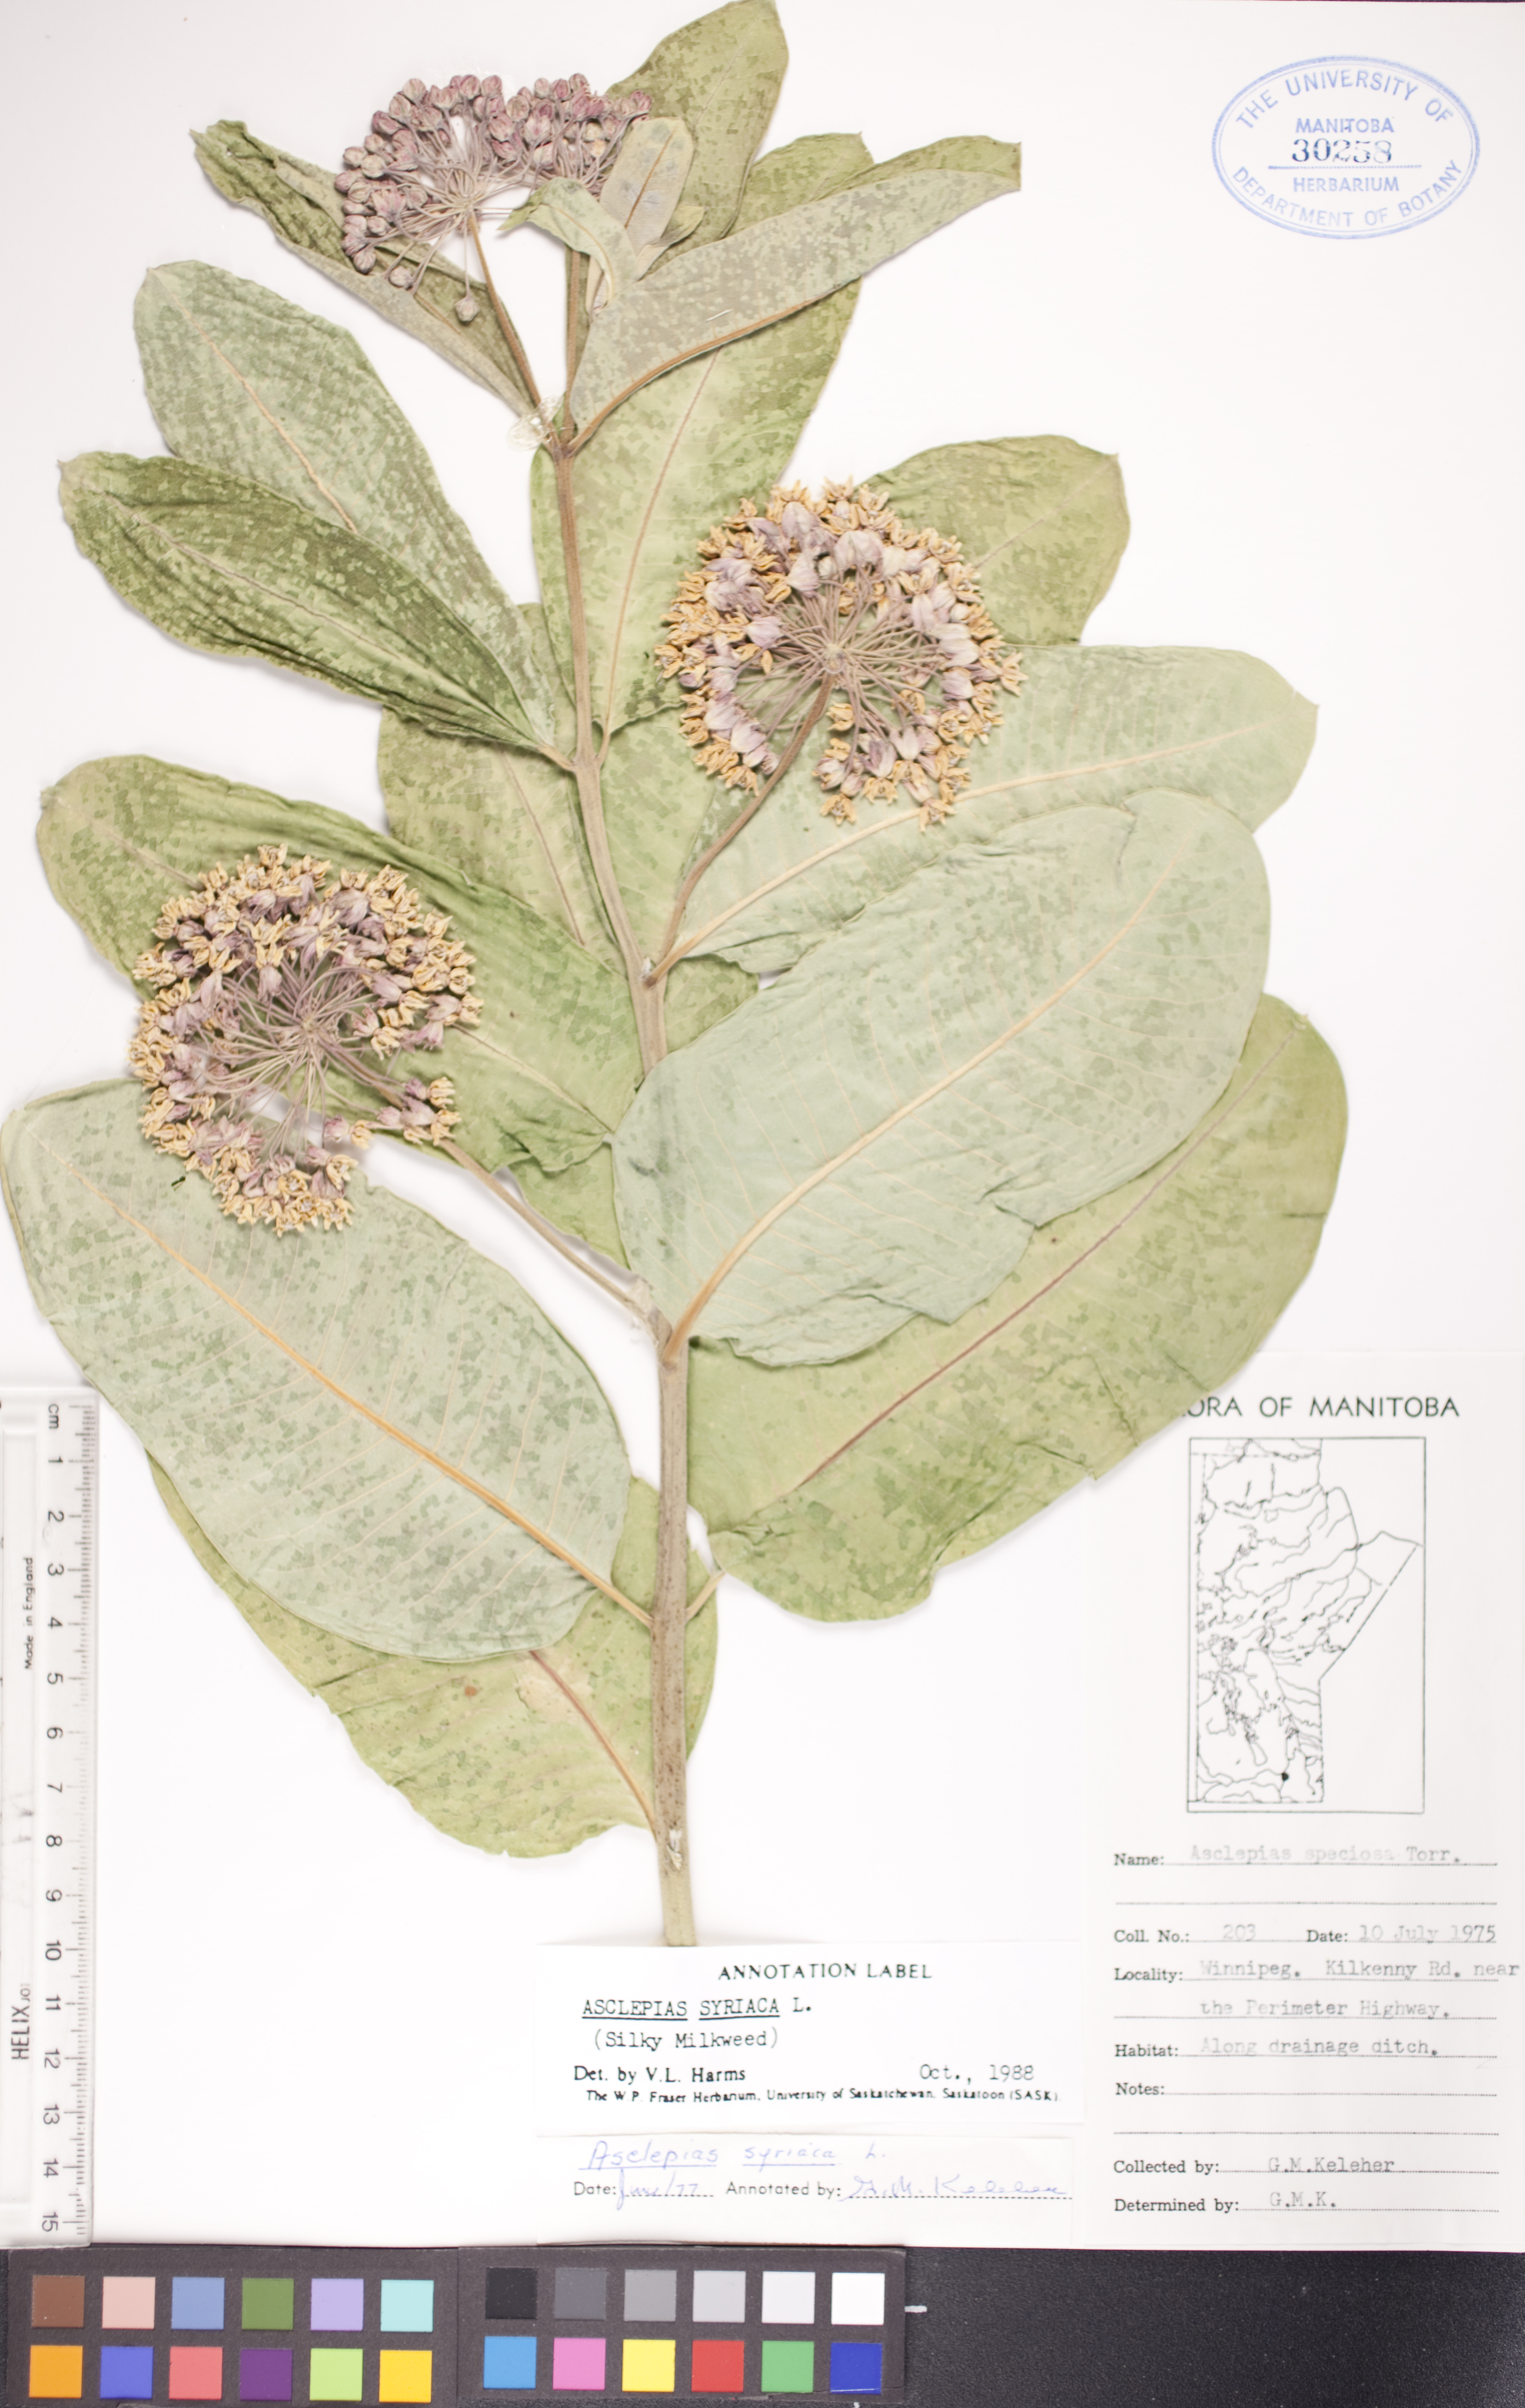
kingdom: Plantae
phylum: Tracheophyta
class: Magnoliopsida
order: Gentianales
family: Apocynaceae
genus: Asclepias
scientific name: Asclepias speciosa
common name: Showy milkweed
